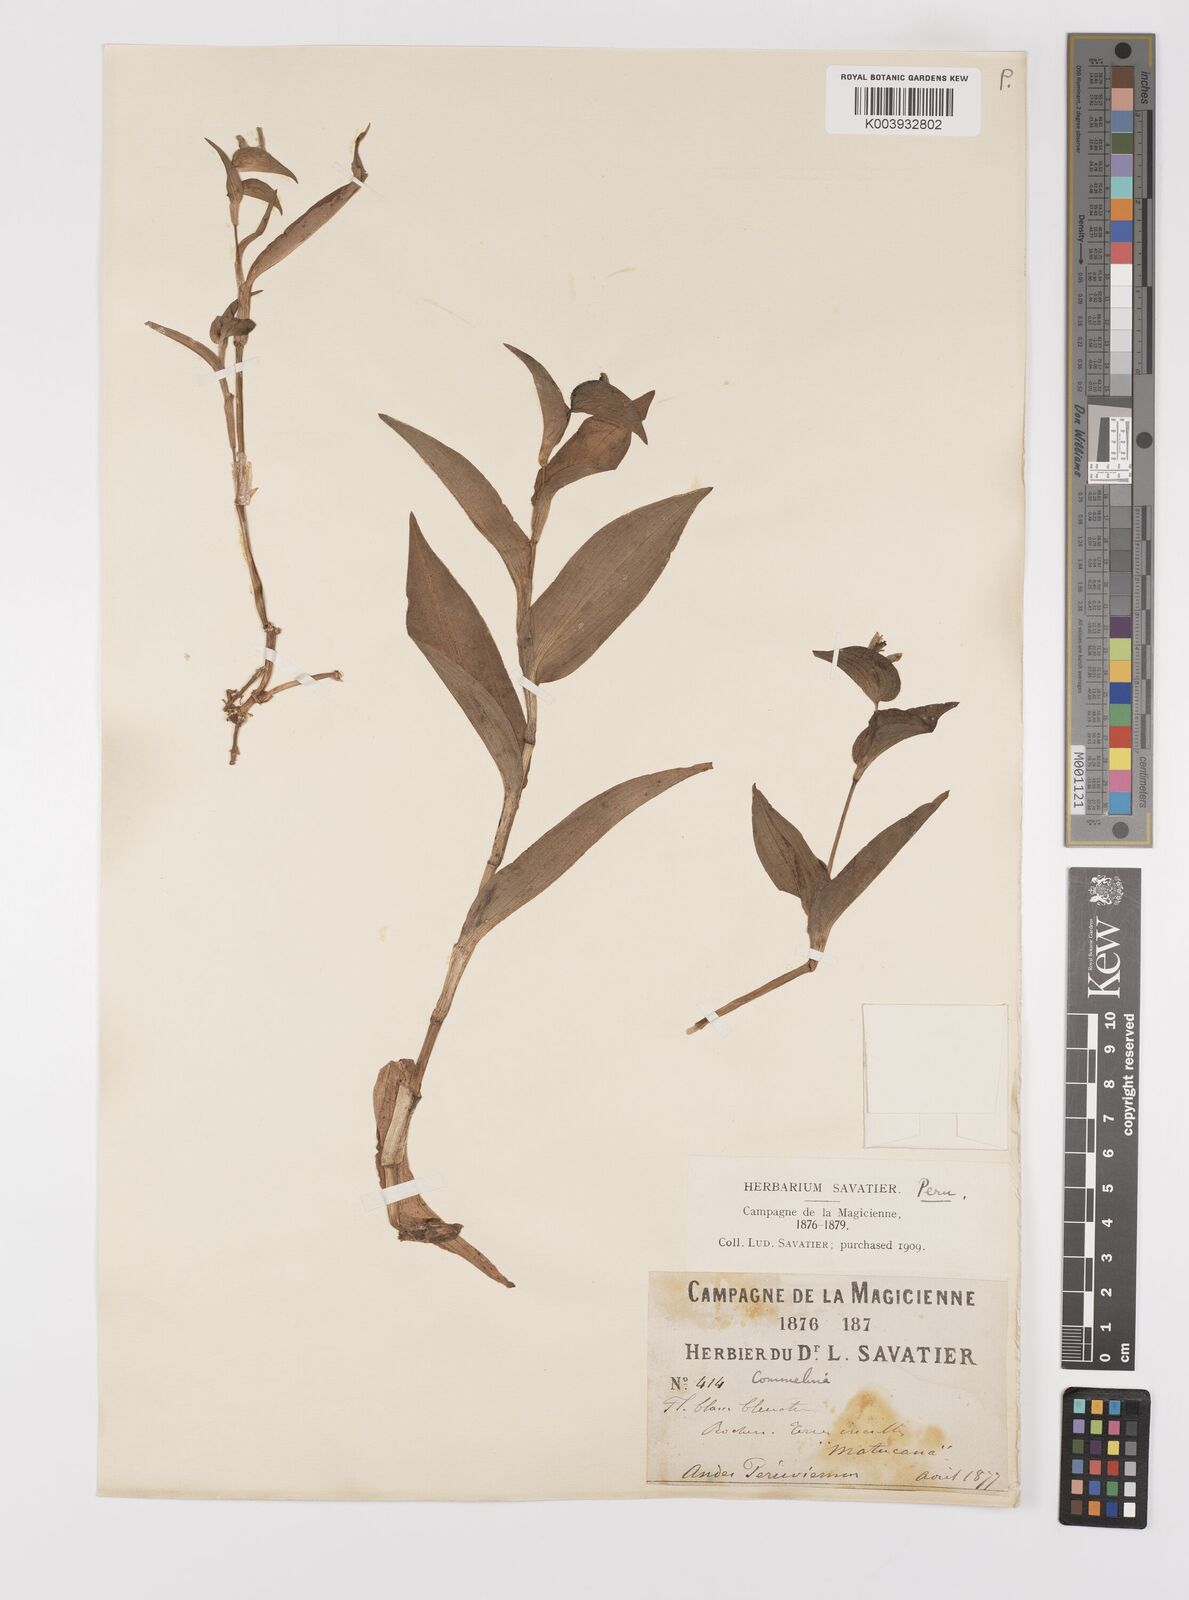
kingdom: Plantae
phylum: Tracheophyta
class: Liliopsida
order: Commelinales
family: Commelinaceae
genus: Commelina
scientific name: Commelina
